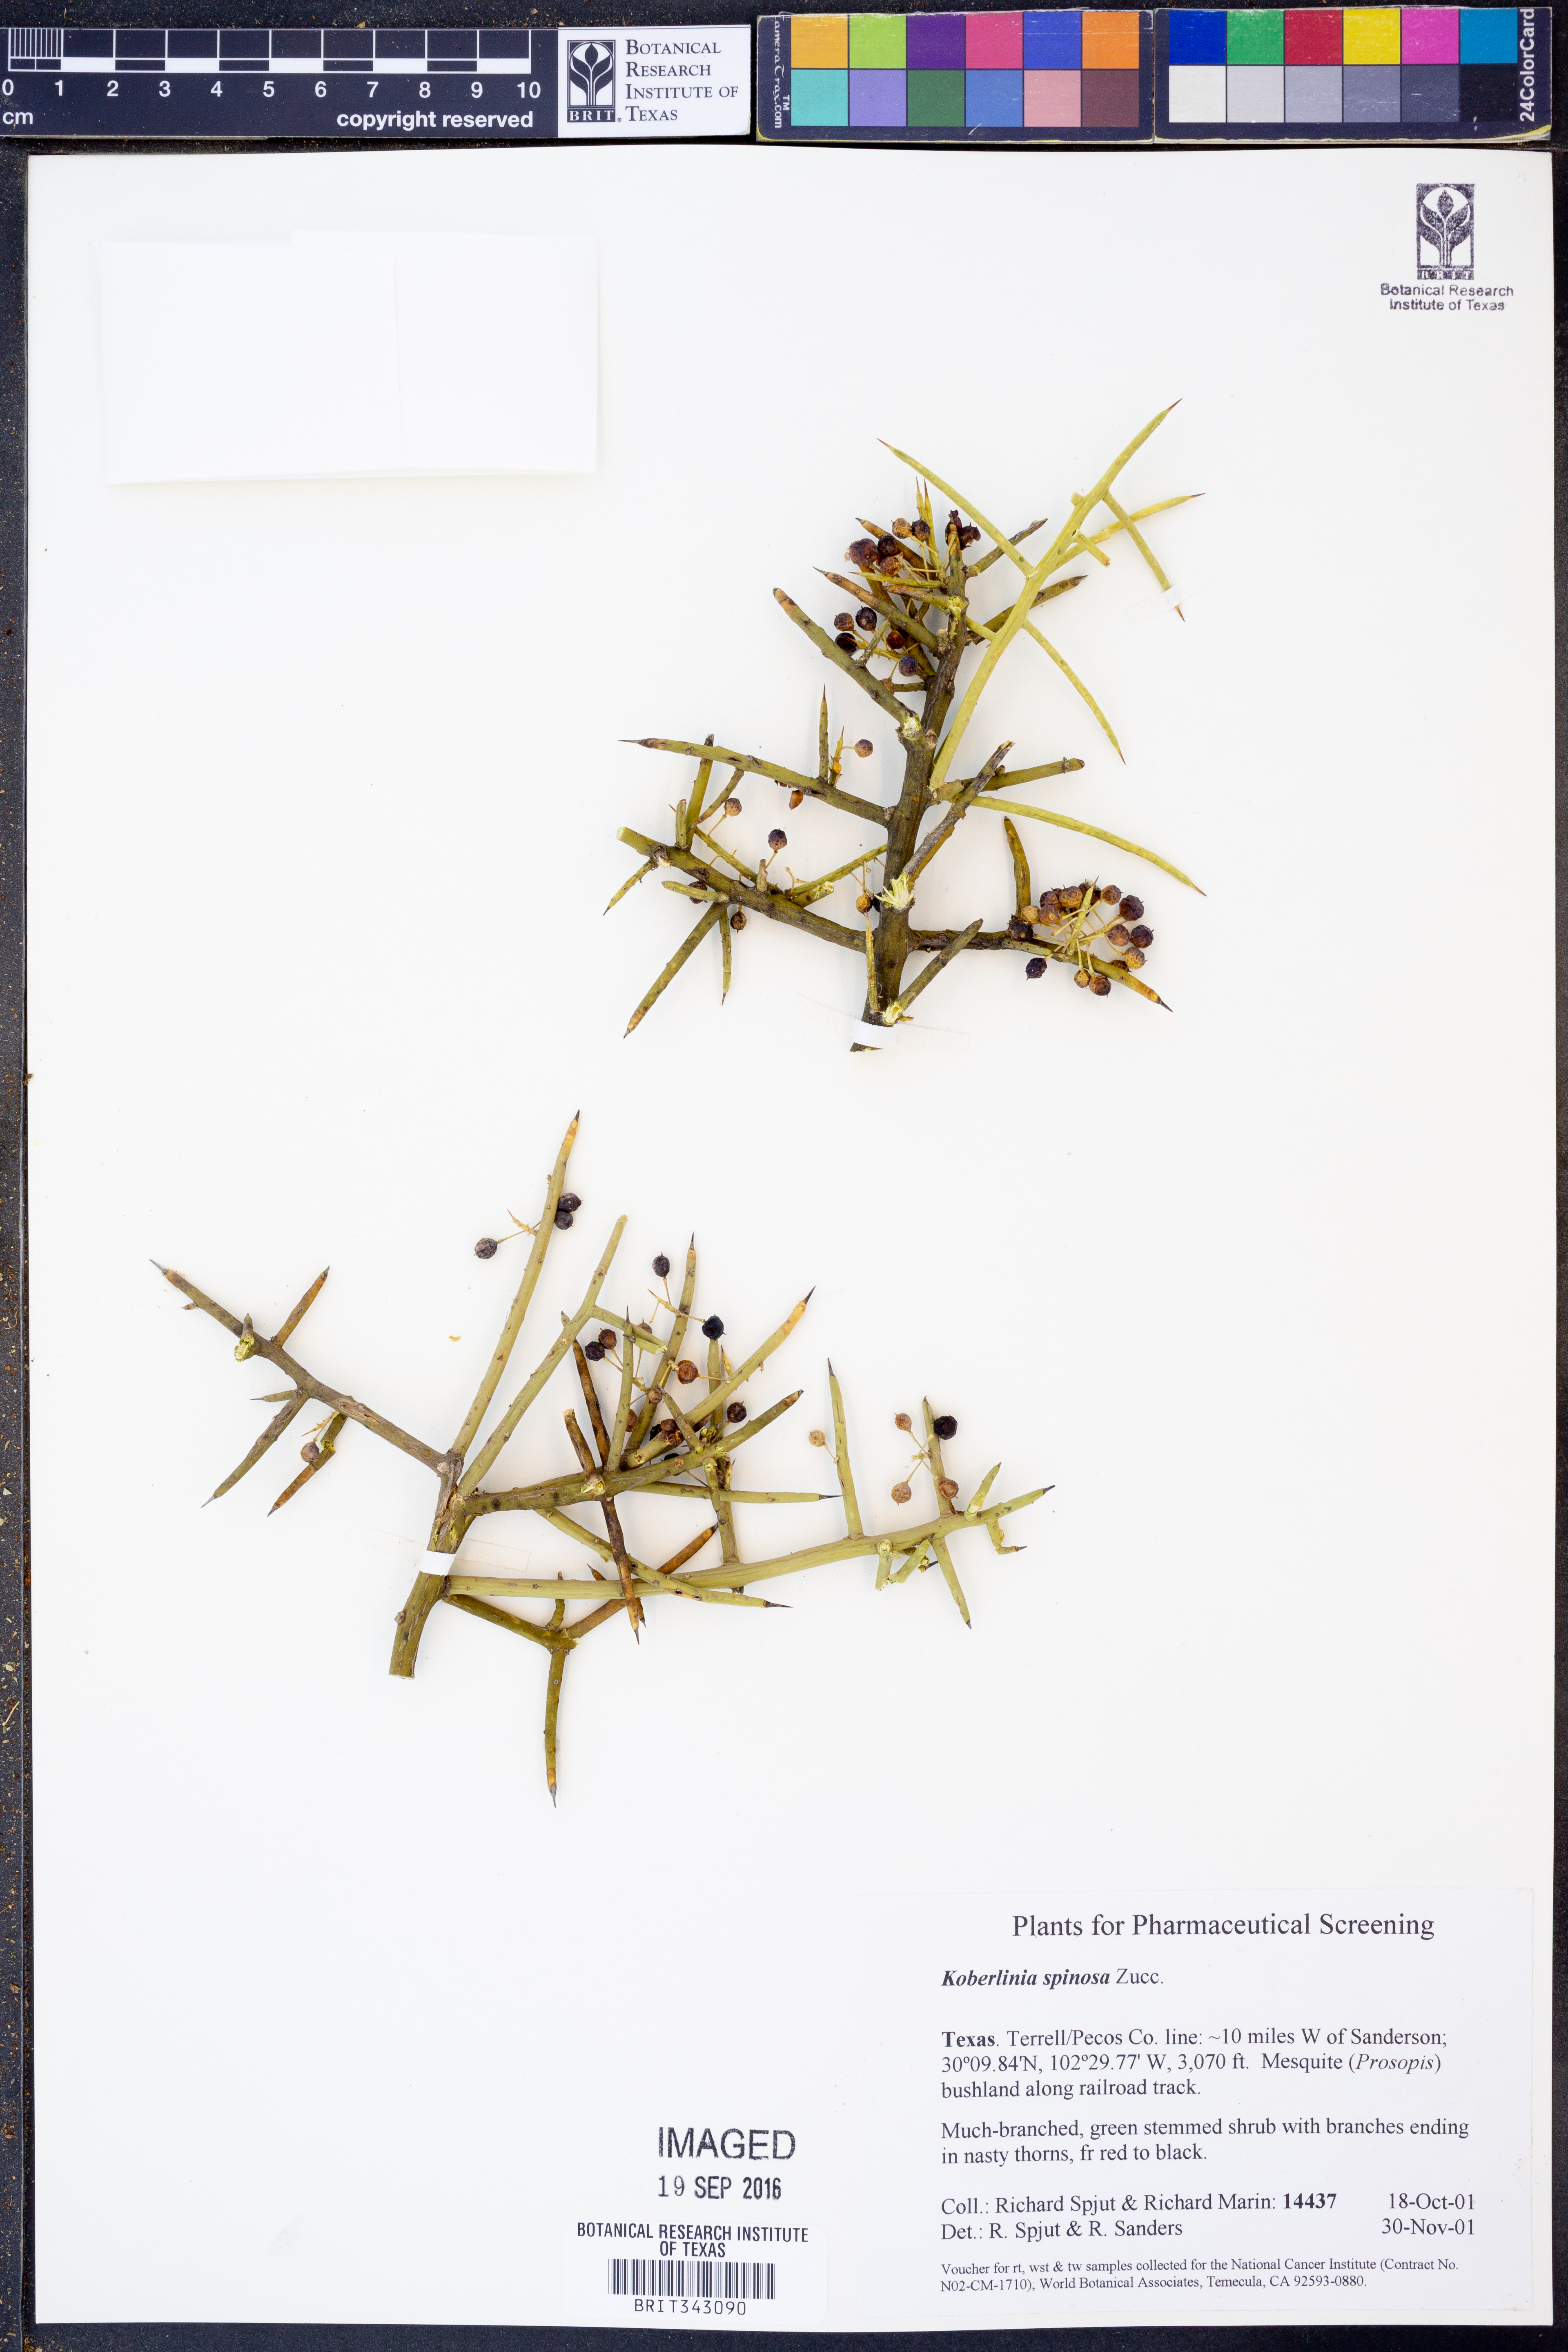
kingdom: Plantae
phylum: Tracheophyta
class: Magnoliopsida
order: Brassicales
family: Koeberliniaceae
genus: Koeberlinia
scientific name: Koeberlinia spinosa
